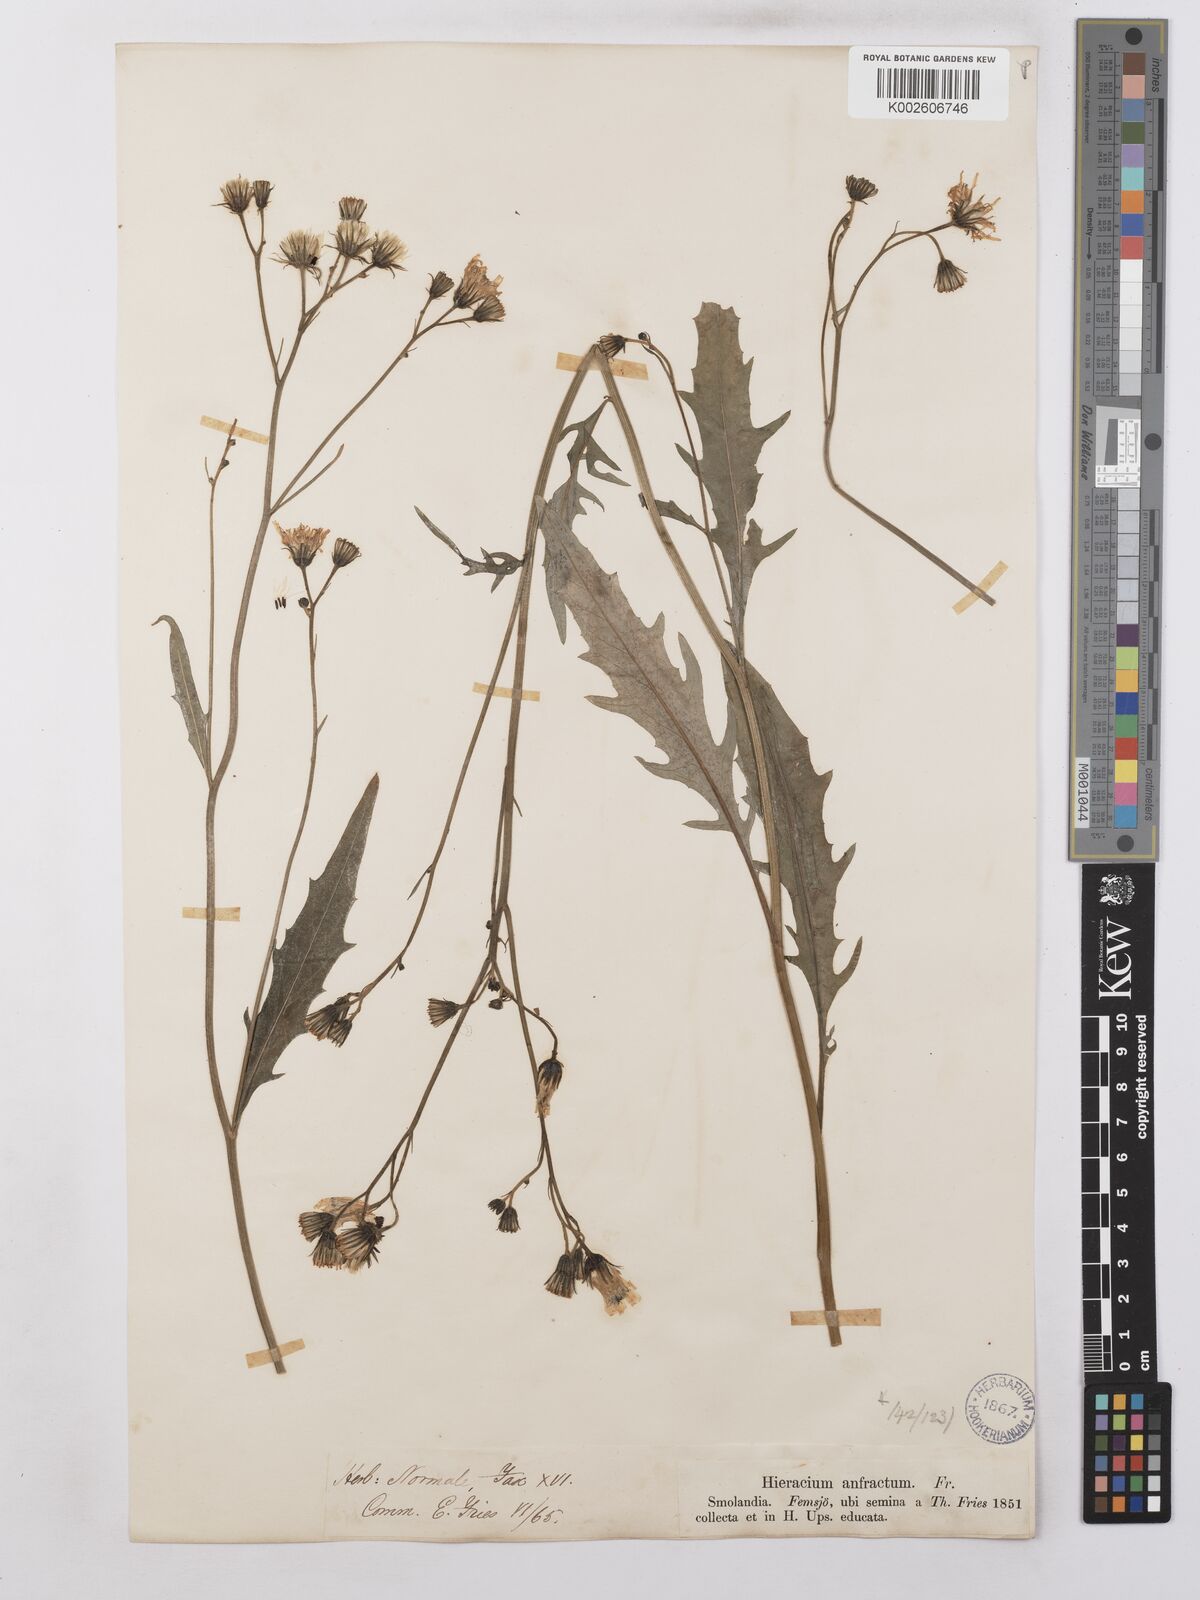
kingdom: Plantae
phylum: Tracheophyta
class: Magnoliopsida
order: Asterales
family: Asteraceae
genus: Hieracium
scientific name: Hieracium lachenalii
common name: Common hawkweed
